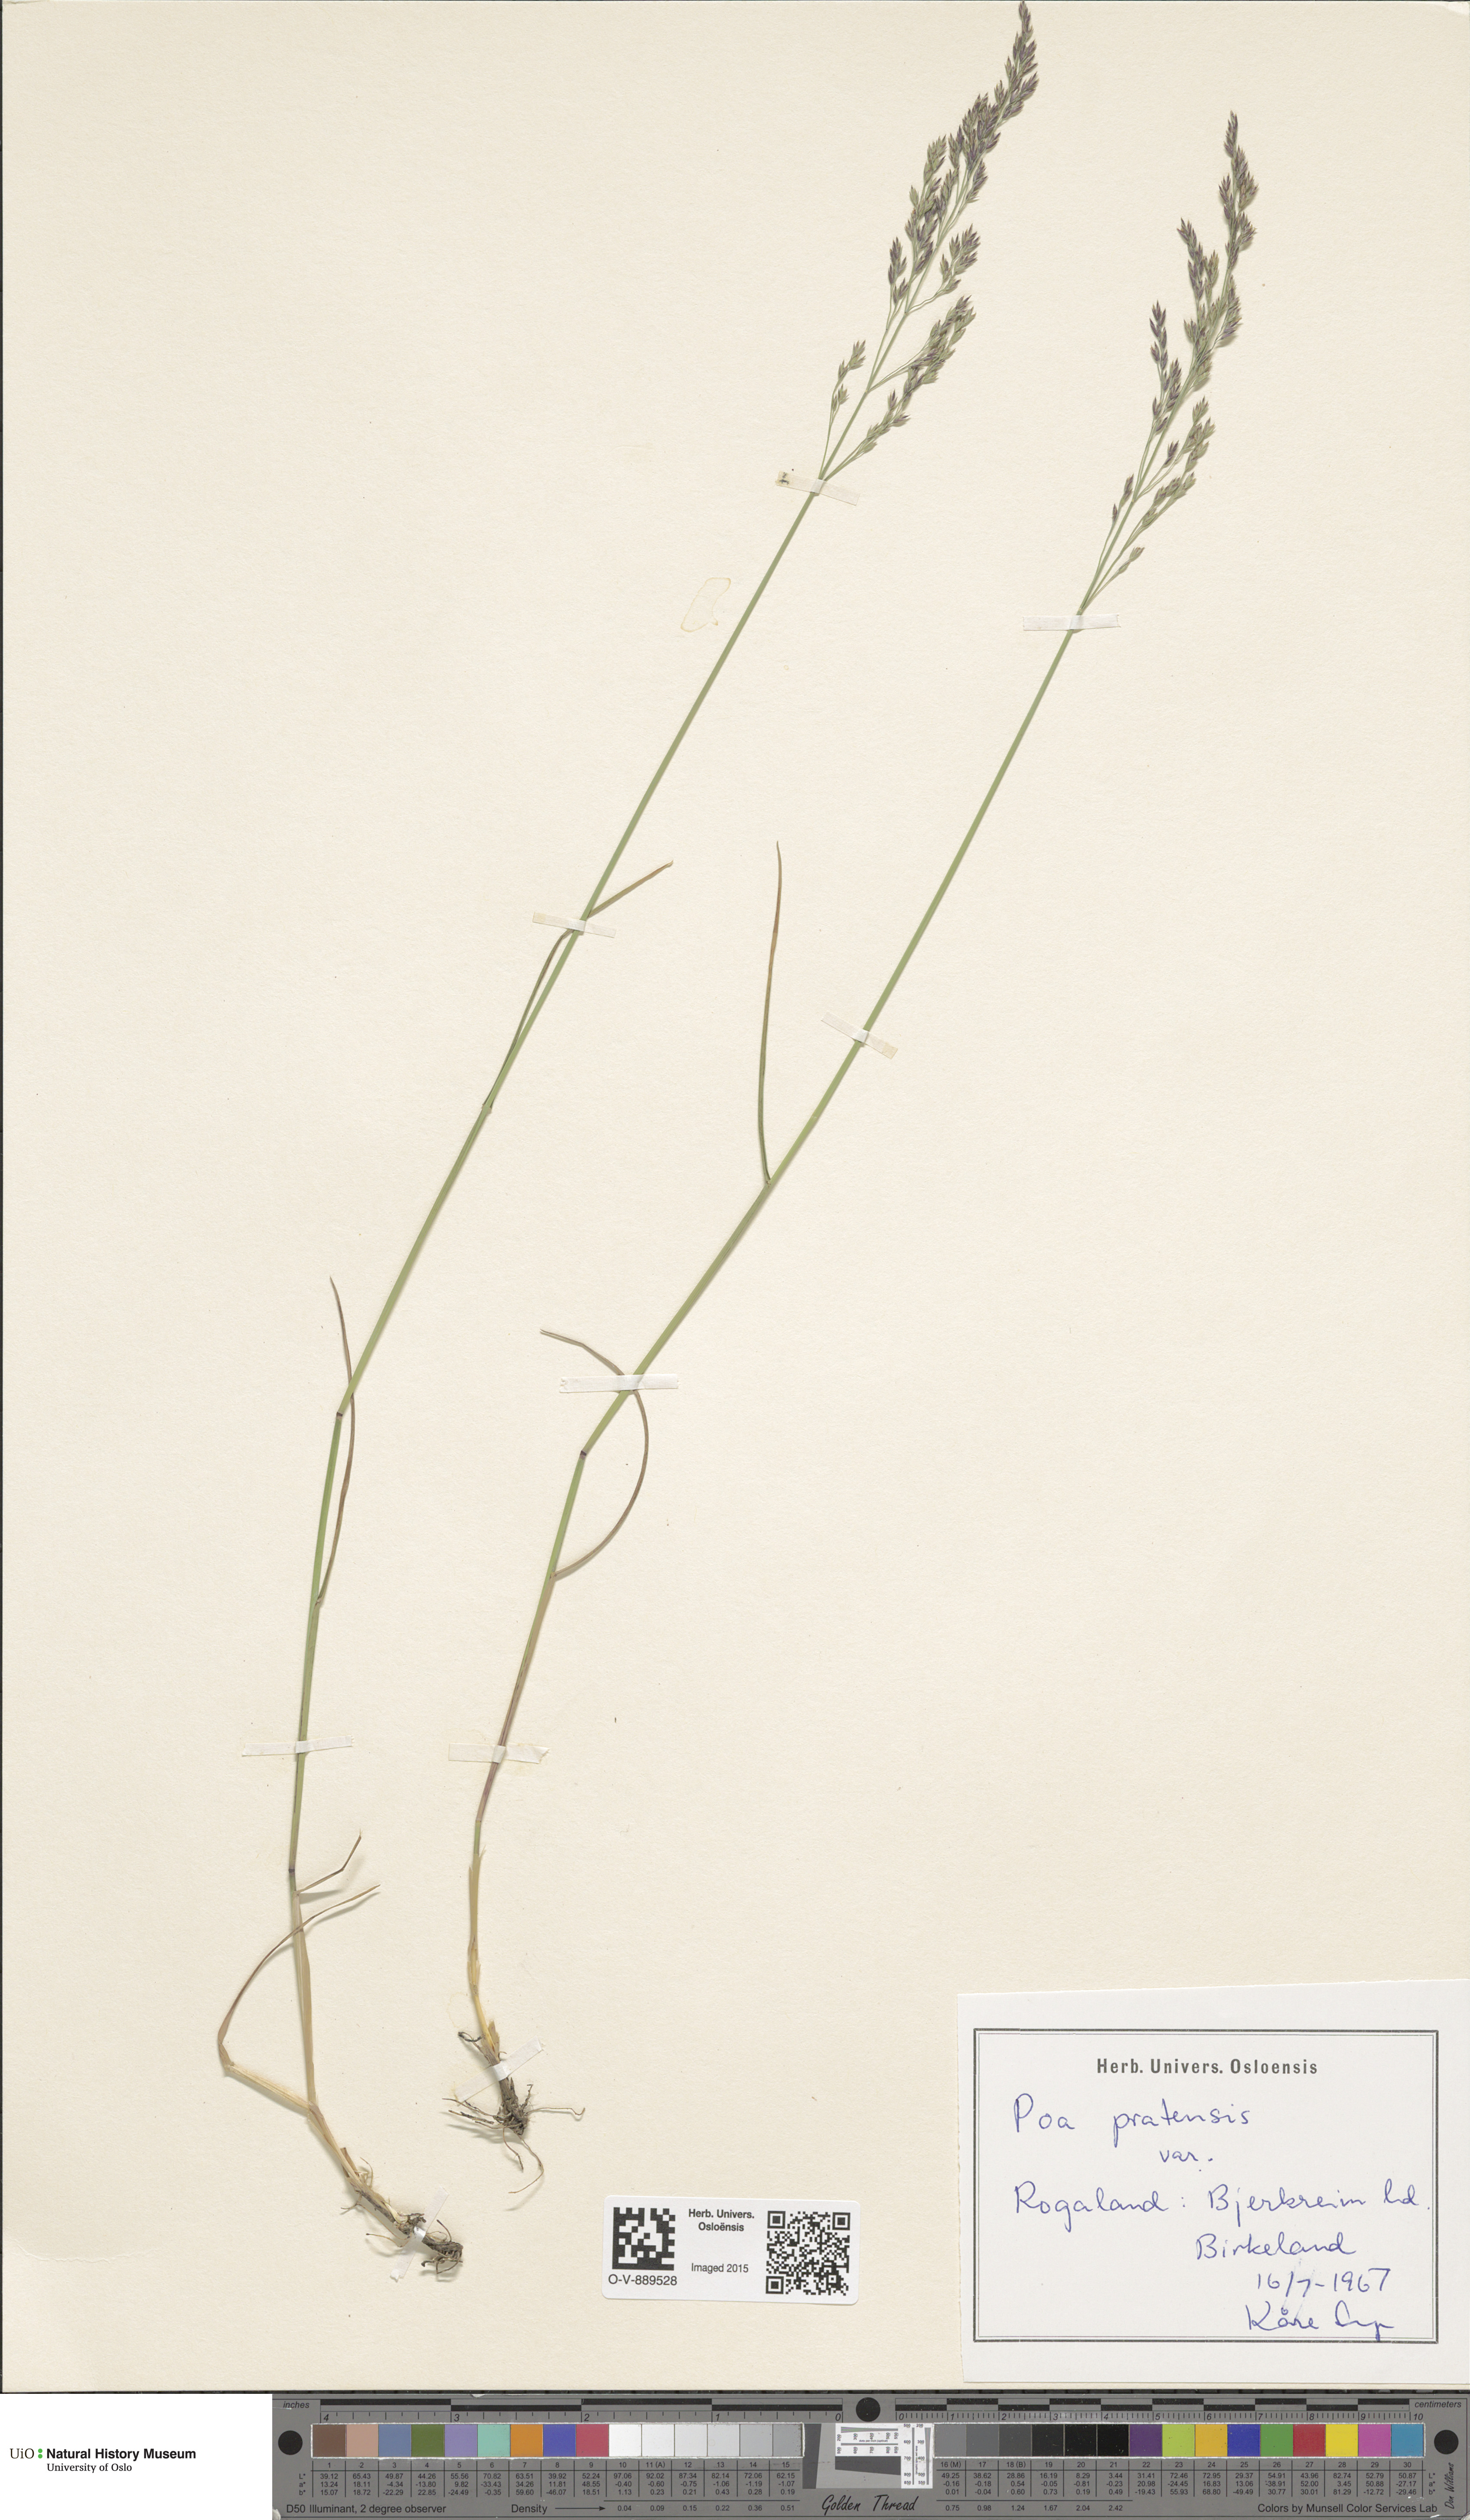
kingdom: Plantae
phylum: Tracheophyta
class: Liliopsida
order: Poales
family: Poaceae
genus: Poa
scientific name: Poa pratensis
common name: Kentucky bluegrass
